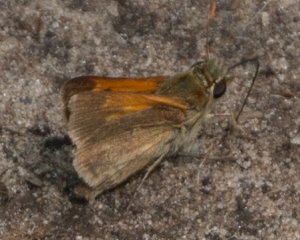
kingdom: Animalia
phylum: Arthropoda
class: Insecta
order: Lepidoptera
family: Hesperiidae
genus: Polites
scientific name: Polites themistocles
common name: Tawny-edged Skipper
